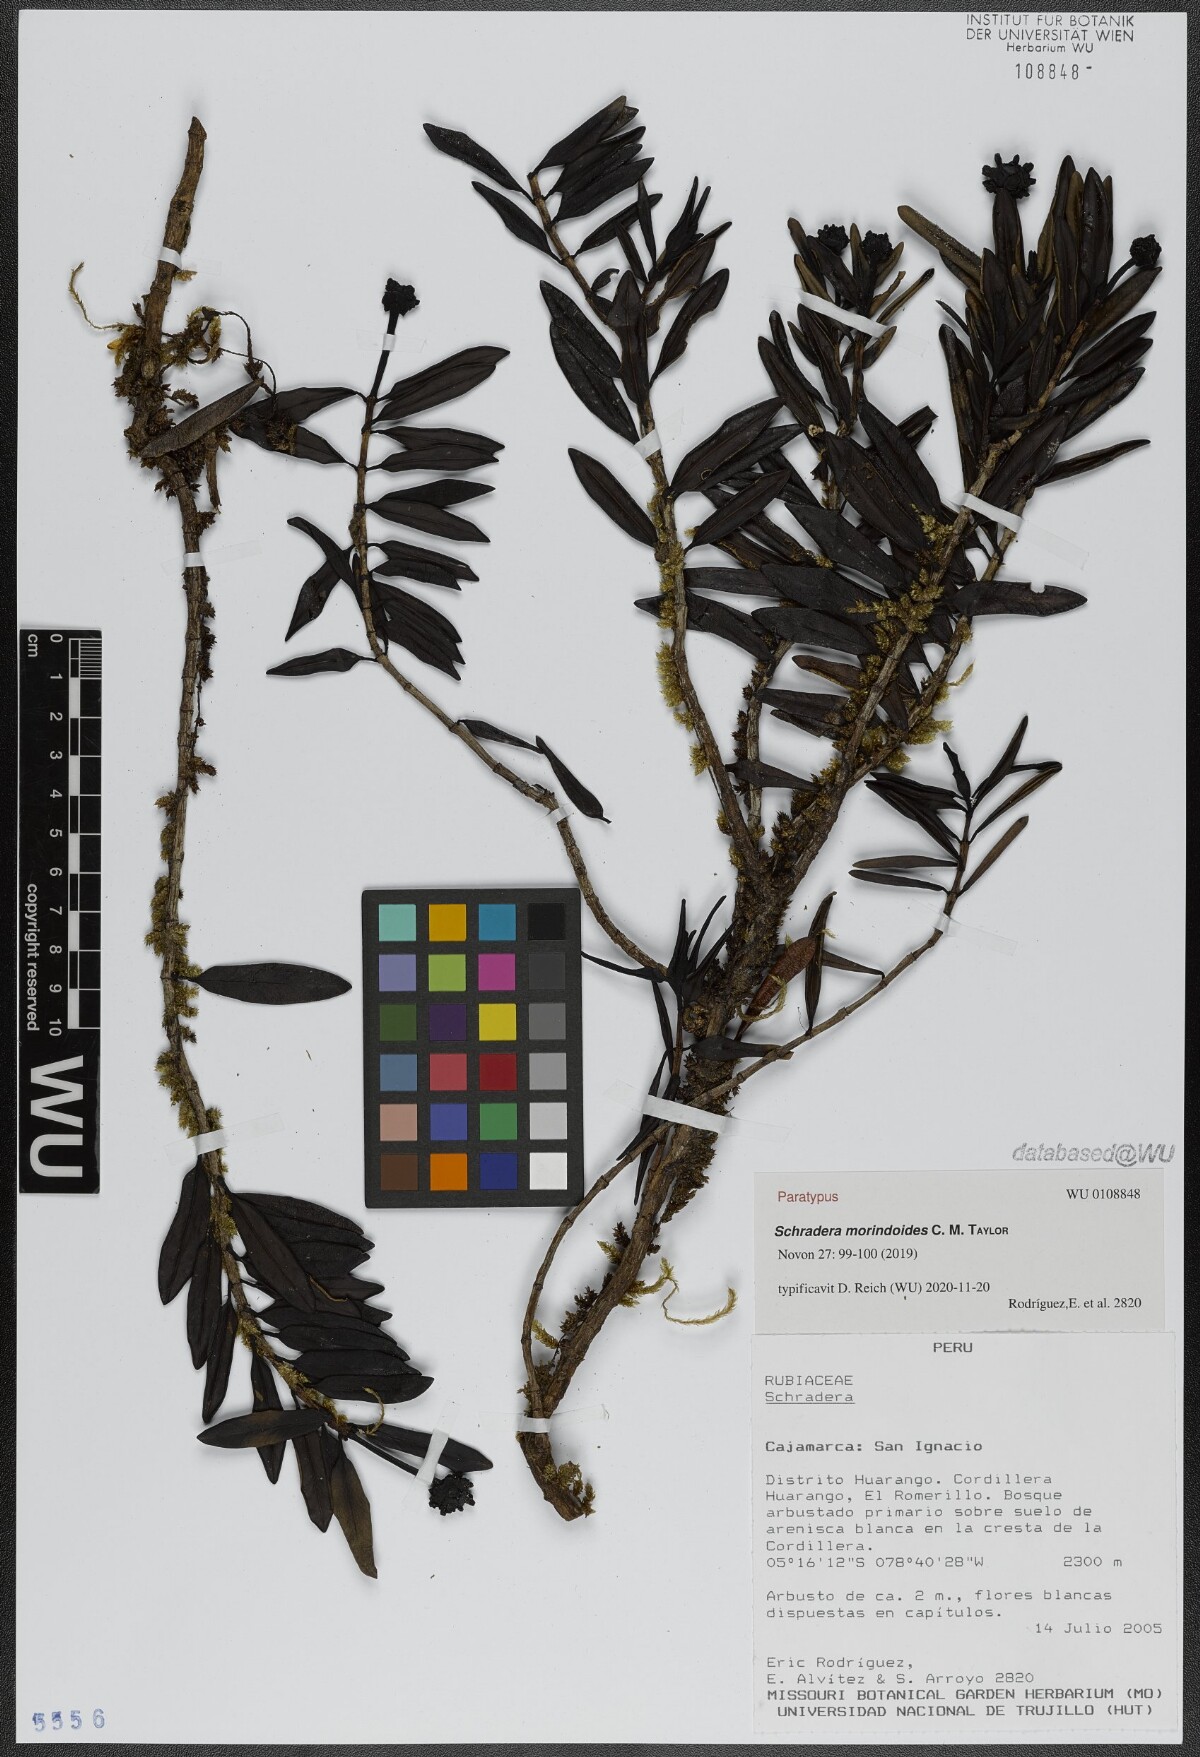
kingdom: Plantae
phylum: Tracheophyta
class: Magnoliopsida
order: Gentianales
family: Rubiaceae
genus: Schradera
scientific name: Schradera morindoides
